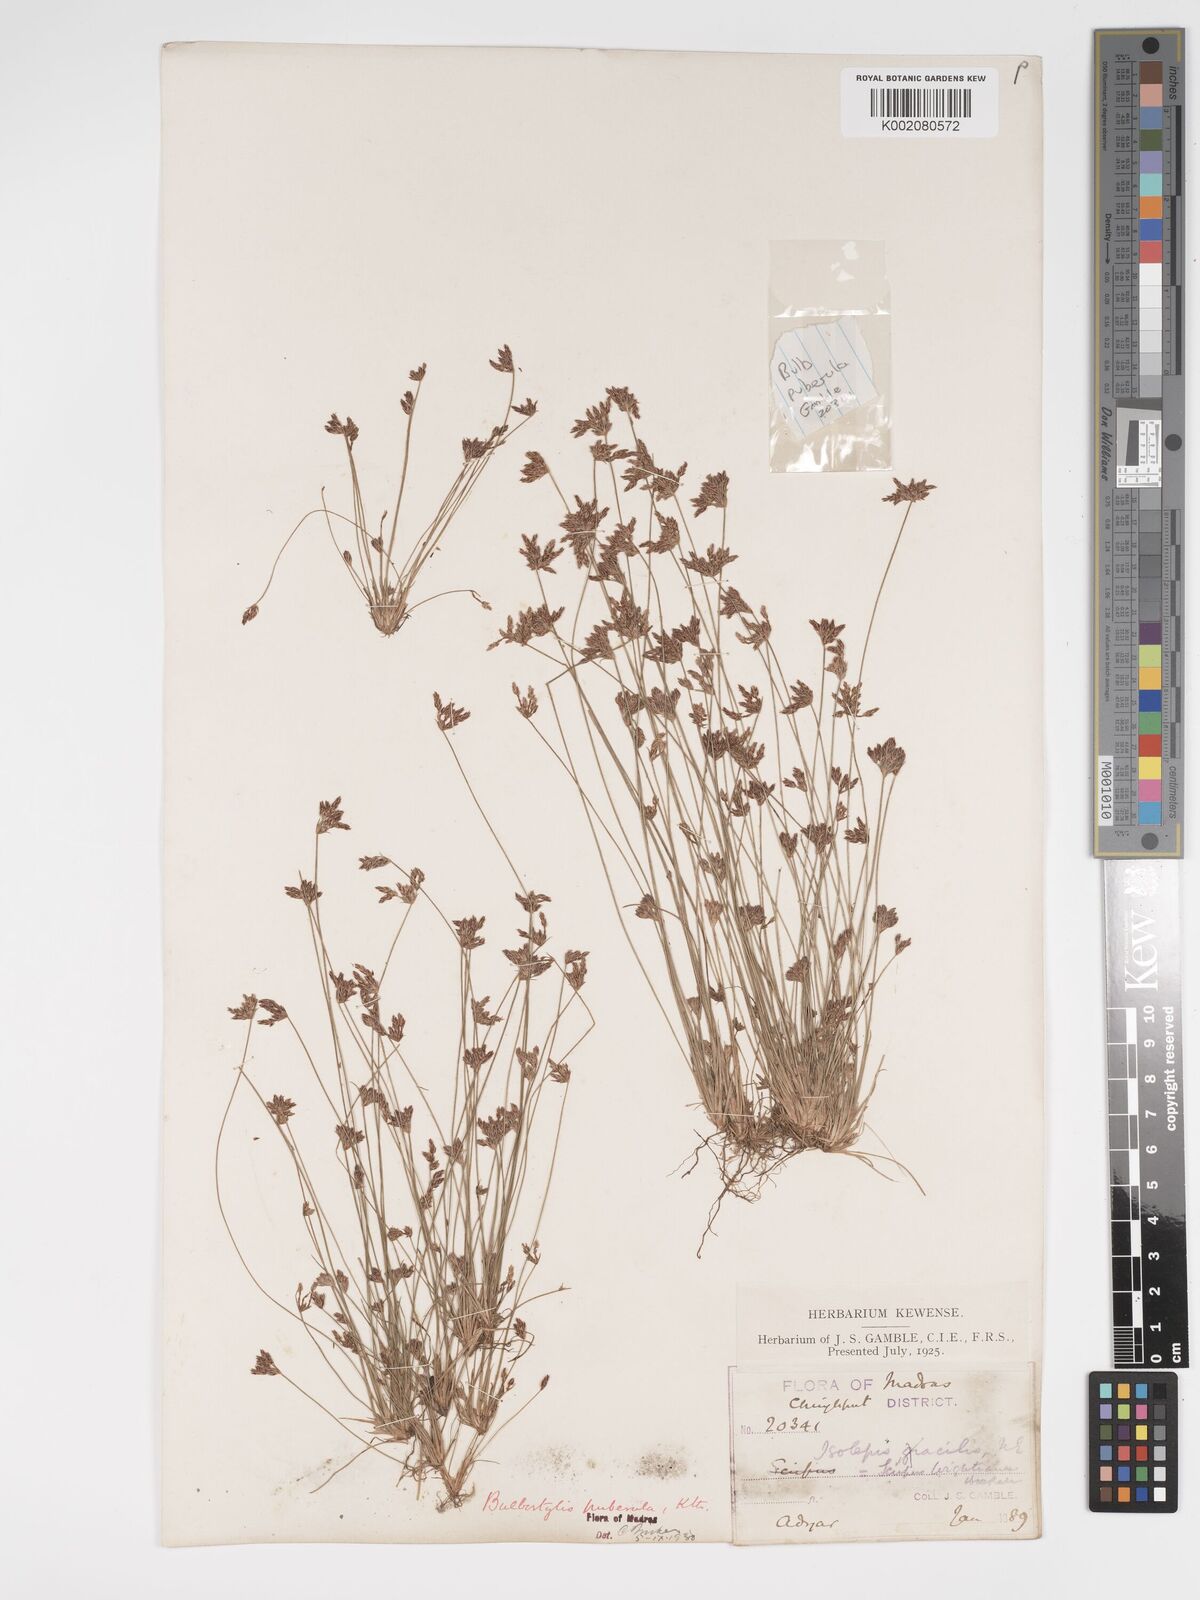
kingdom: Plantae
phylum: Tracheophyta
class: Liliopsida
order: Poales
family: Cyperaceae
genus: Bulbostylis
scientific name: Bulbostylis thouarsii
